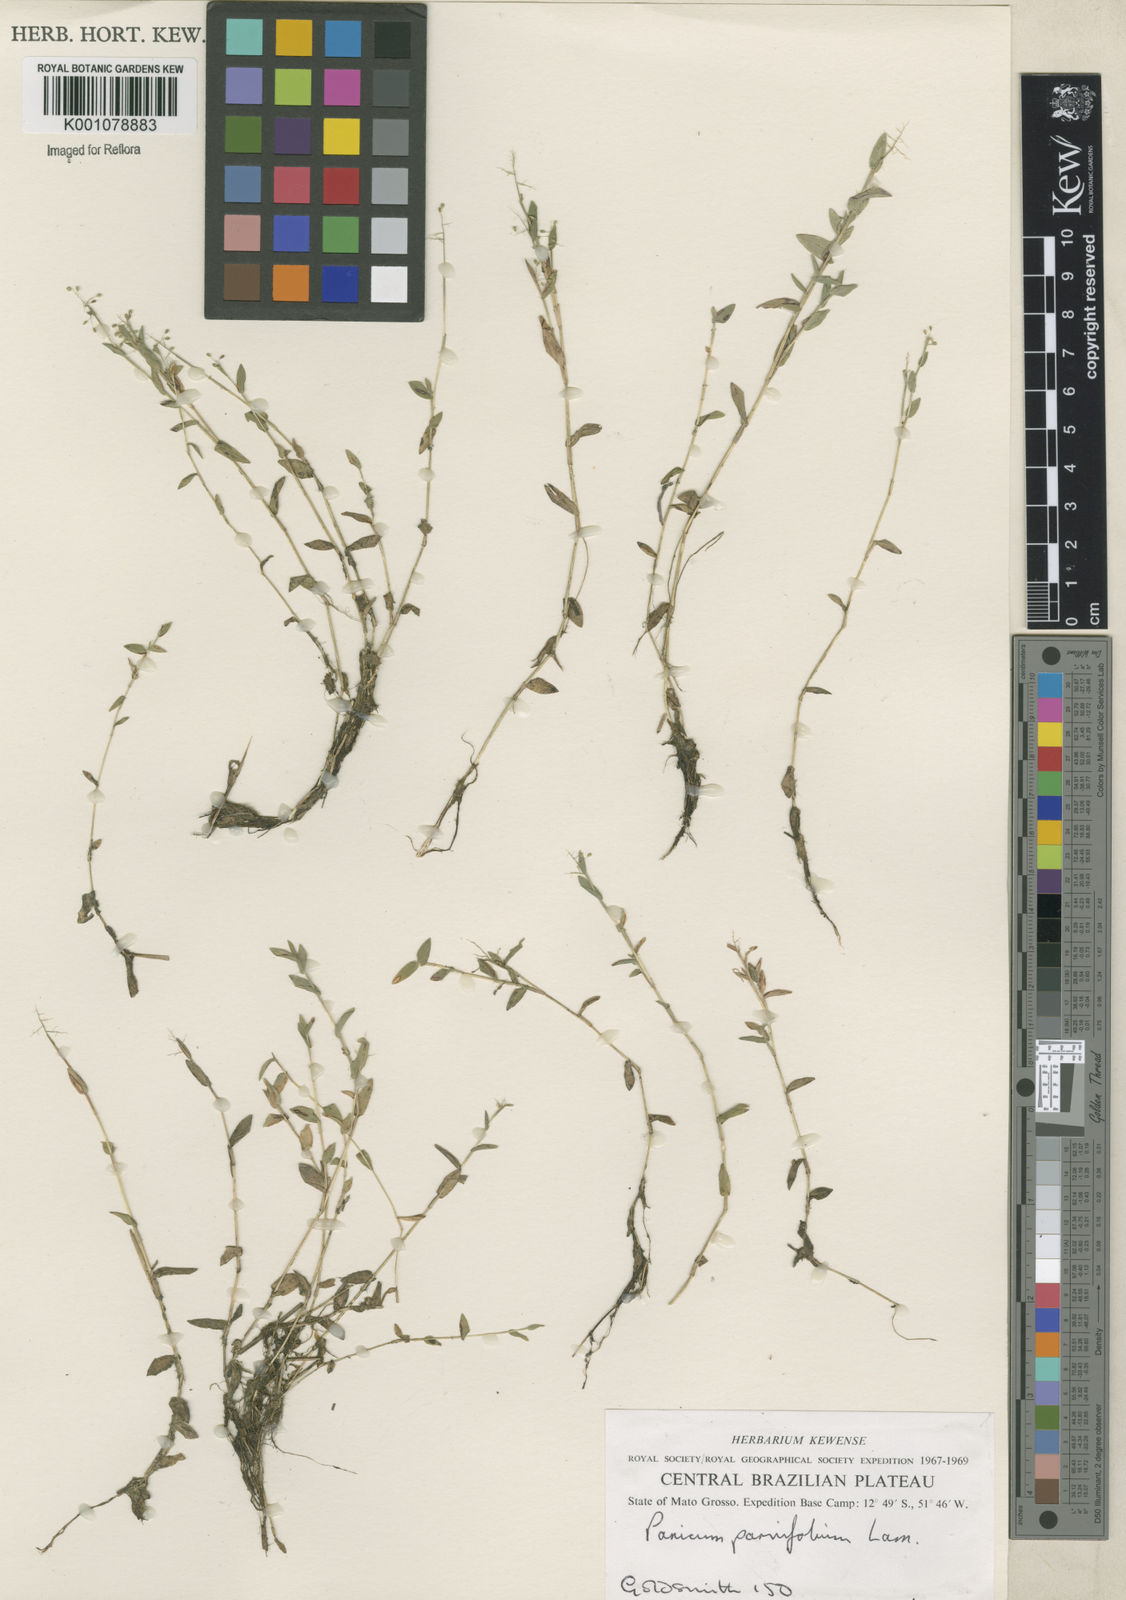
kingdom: Plantae
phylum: Tracheophyta
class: Liliopsida
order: Poales
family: Poaceae
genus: Trichanthecium
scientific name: Trichanthecium parvifolium
